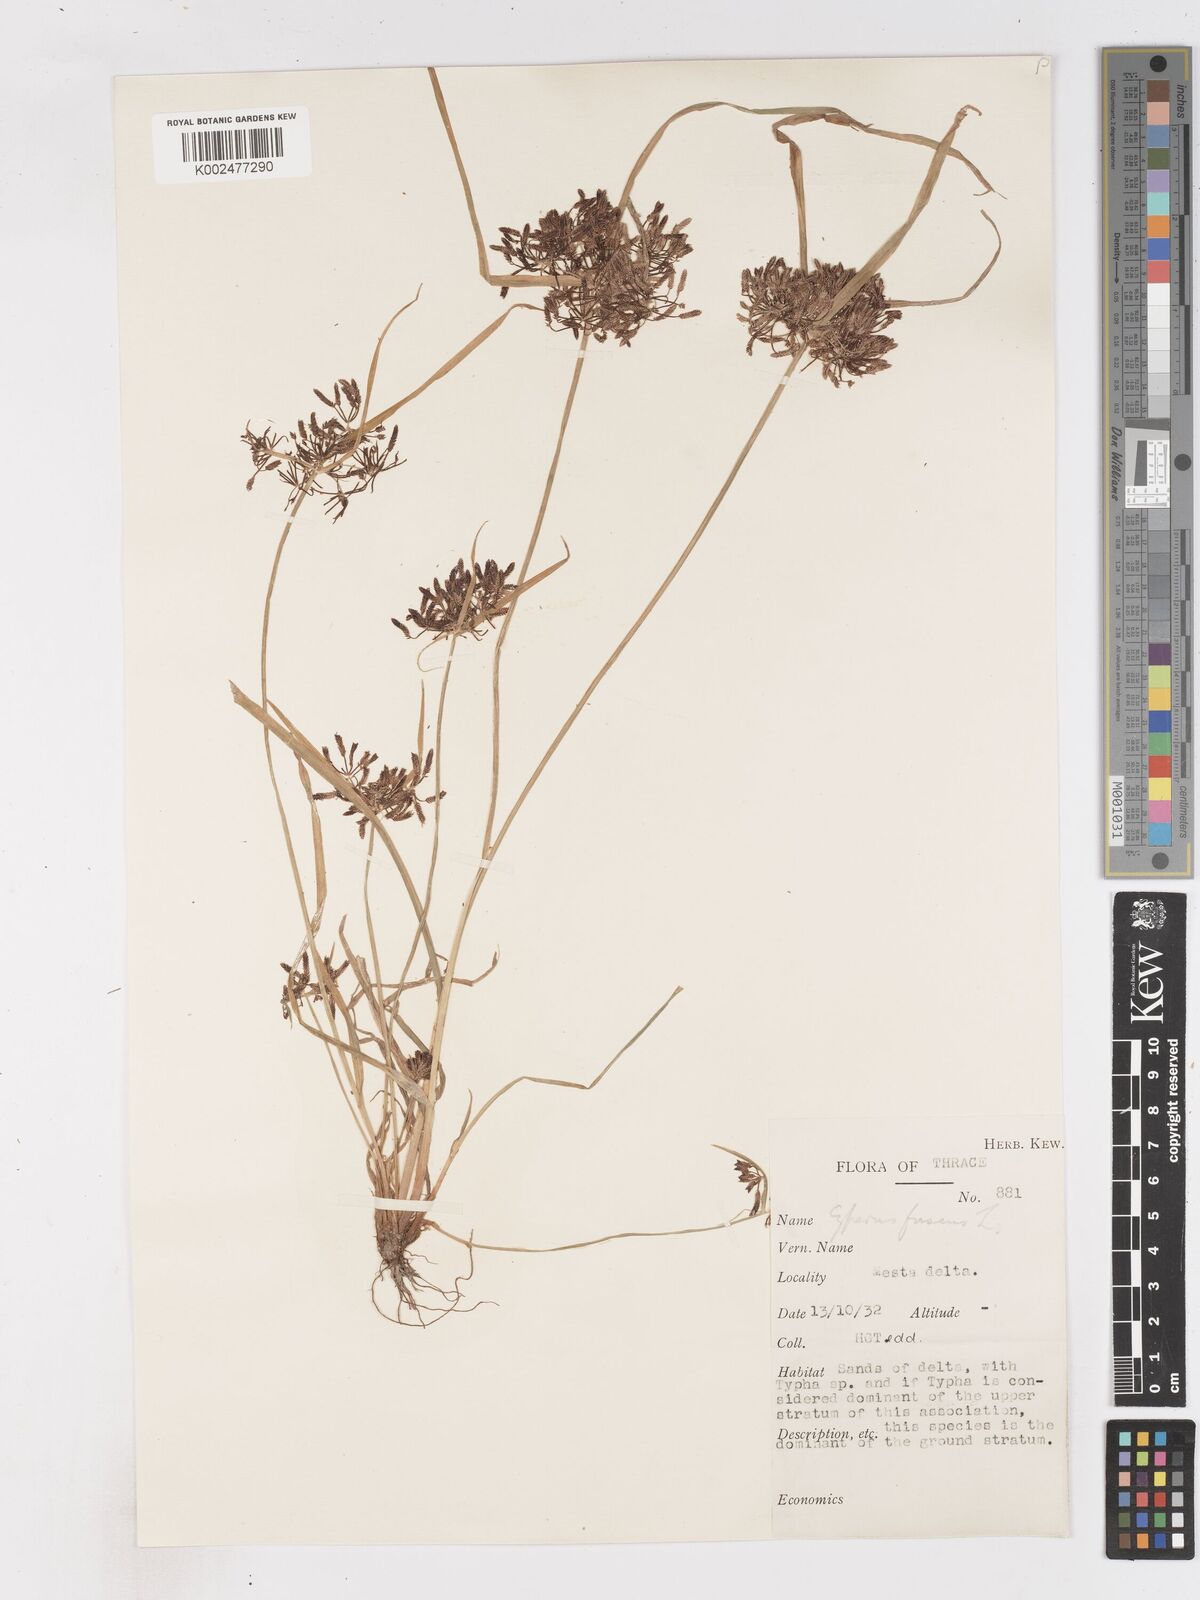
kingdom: Plantae
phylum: Tracheophyta
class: Liliopsida
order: Poales
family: Cyperaceae
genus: Cyperus
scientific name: Cyperus fuscus
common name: Brown galingale
